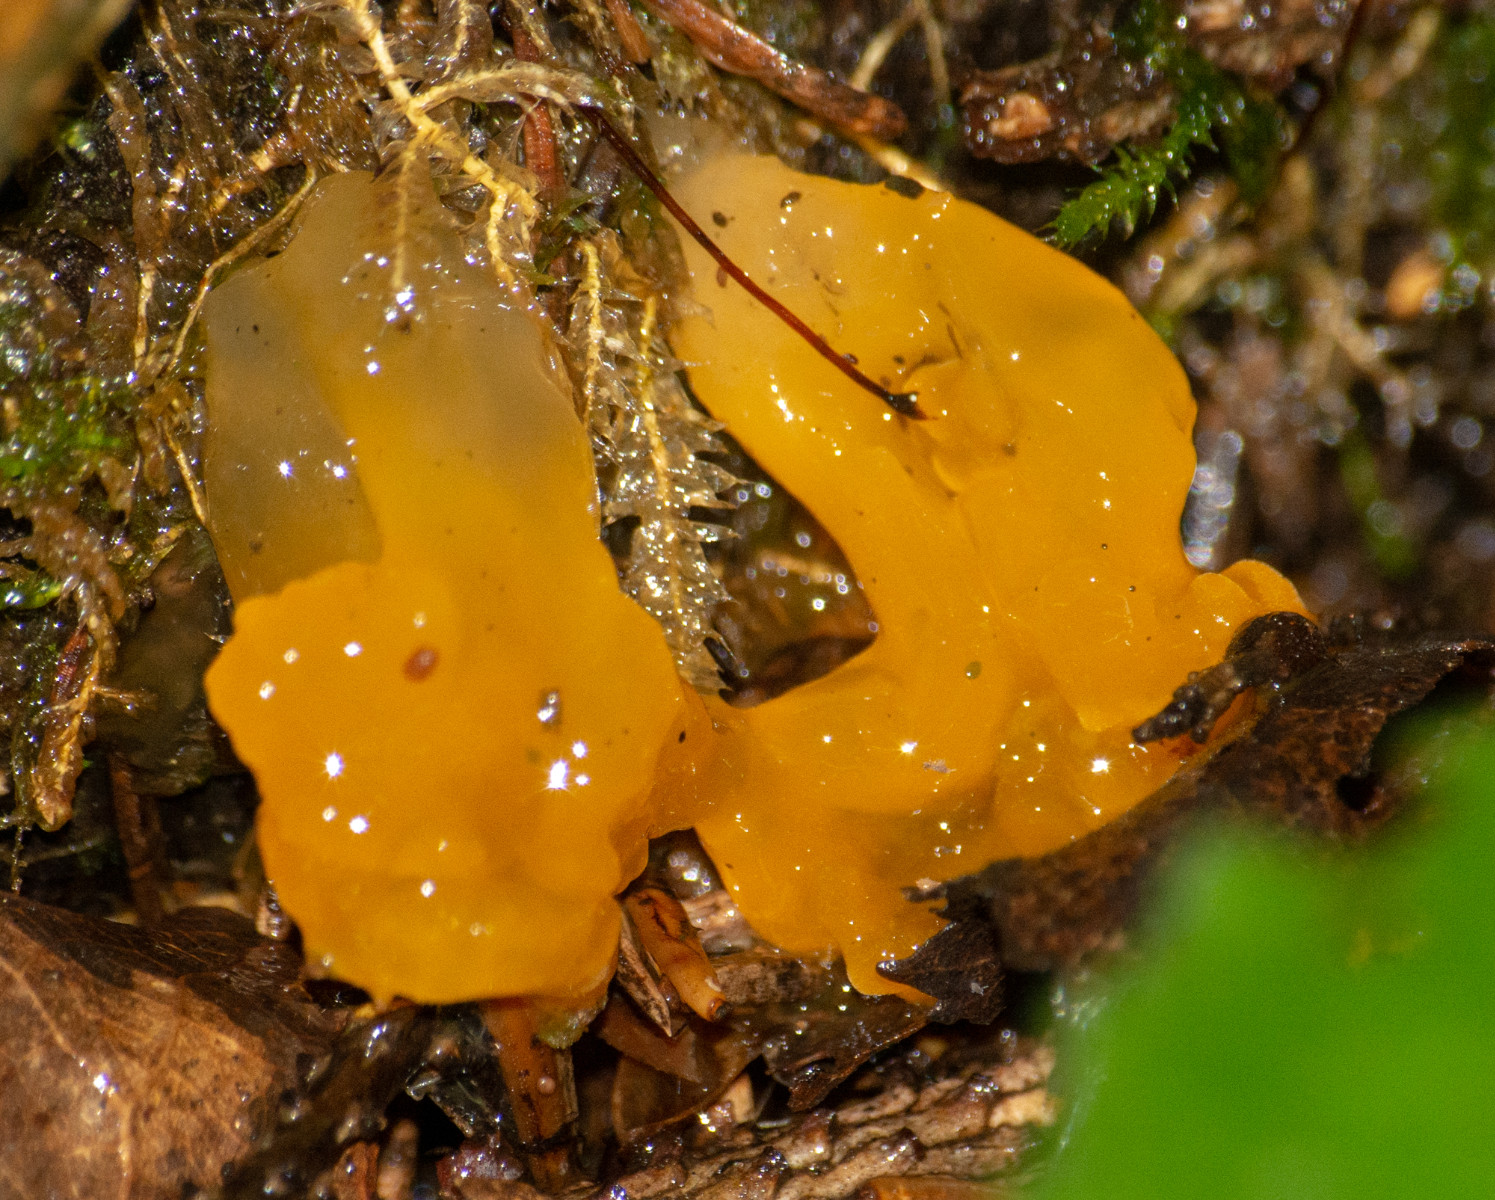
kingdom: Fungi
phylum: Basidiomycota
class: Tremellomycetes
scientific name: Tremellomycetes
